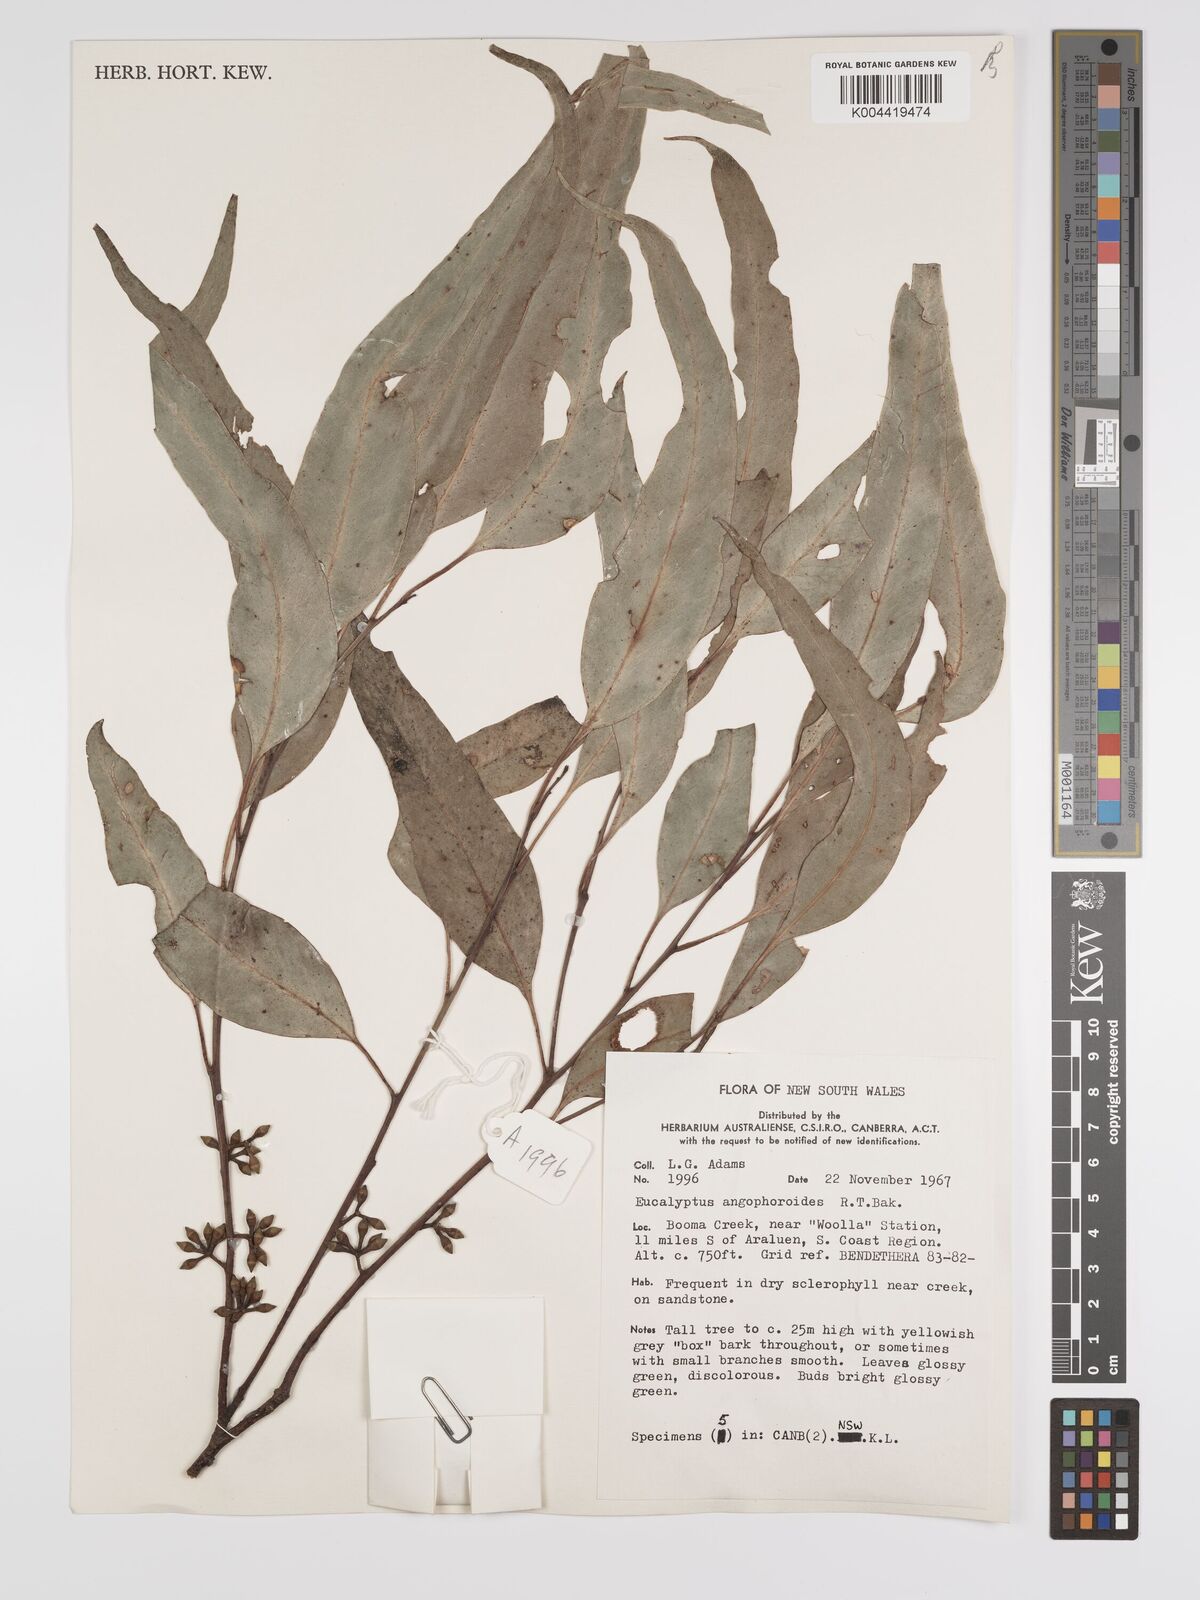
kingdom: Plantae
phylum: Tracheophyta
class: Magnoliopsida
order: Myrtales
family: Myrtaceae
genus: Eucalyptus
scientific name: Eucalyptus angophoroides
